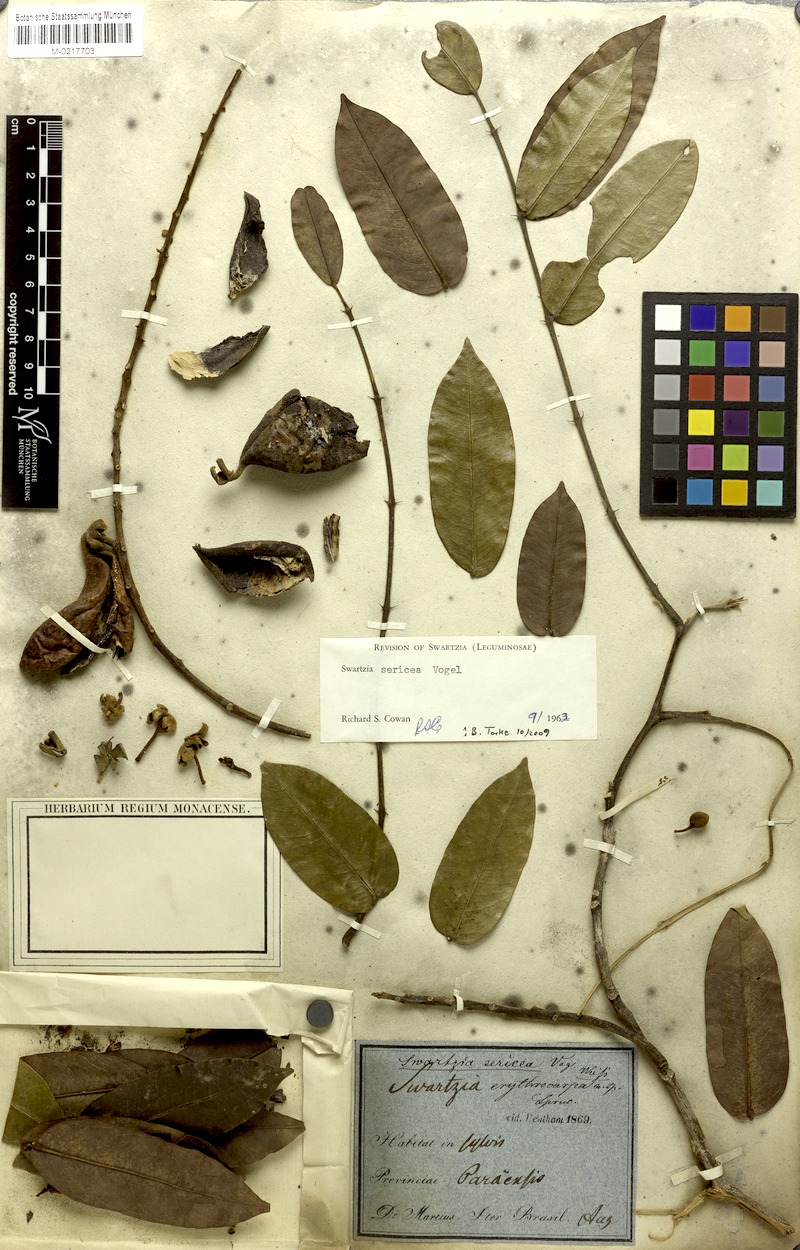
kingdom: Plantae
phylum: Tracheophyta
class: Magnoliopsida
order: Fabales
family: Fabaceae
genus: Swartzia
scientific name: Swartzia sericea
